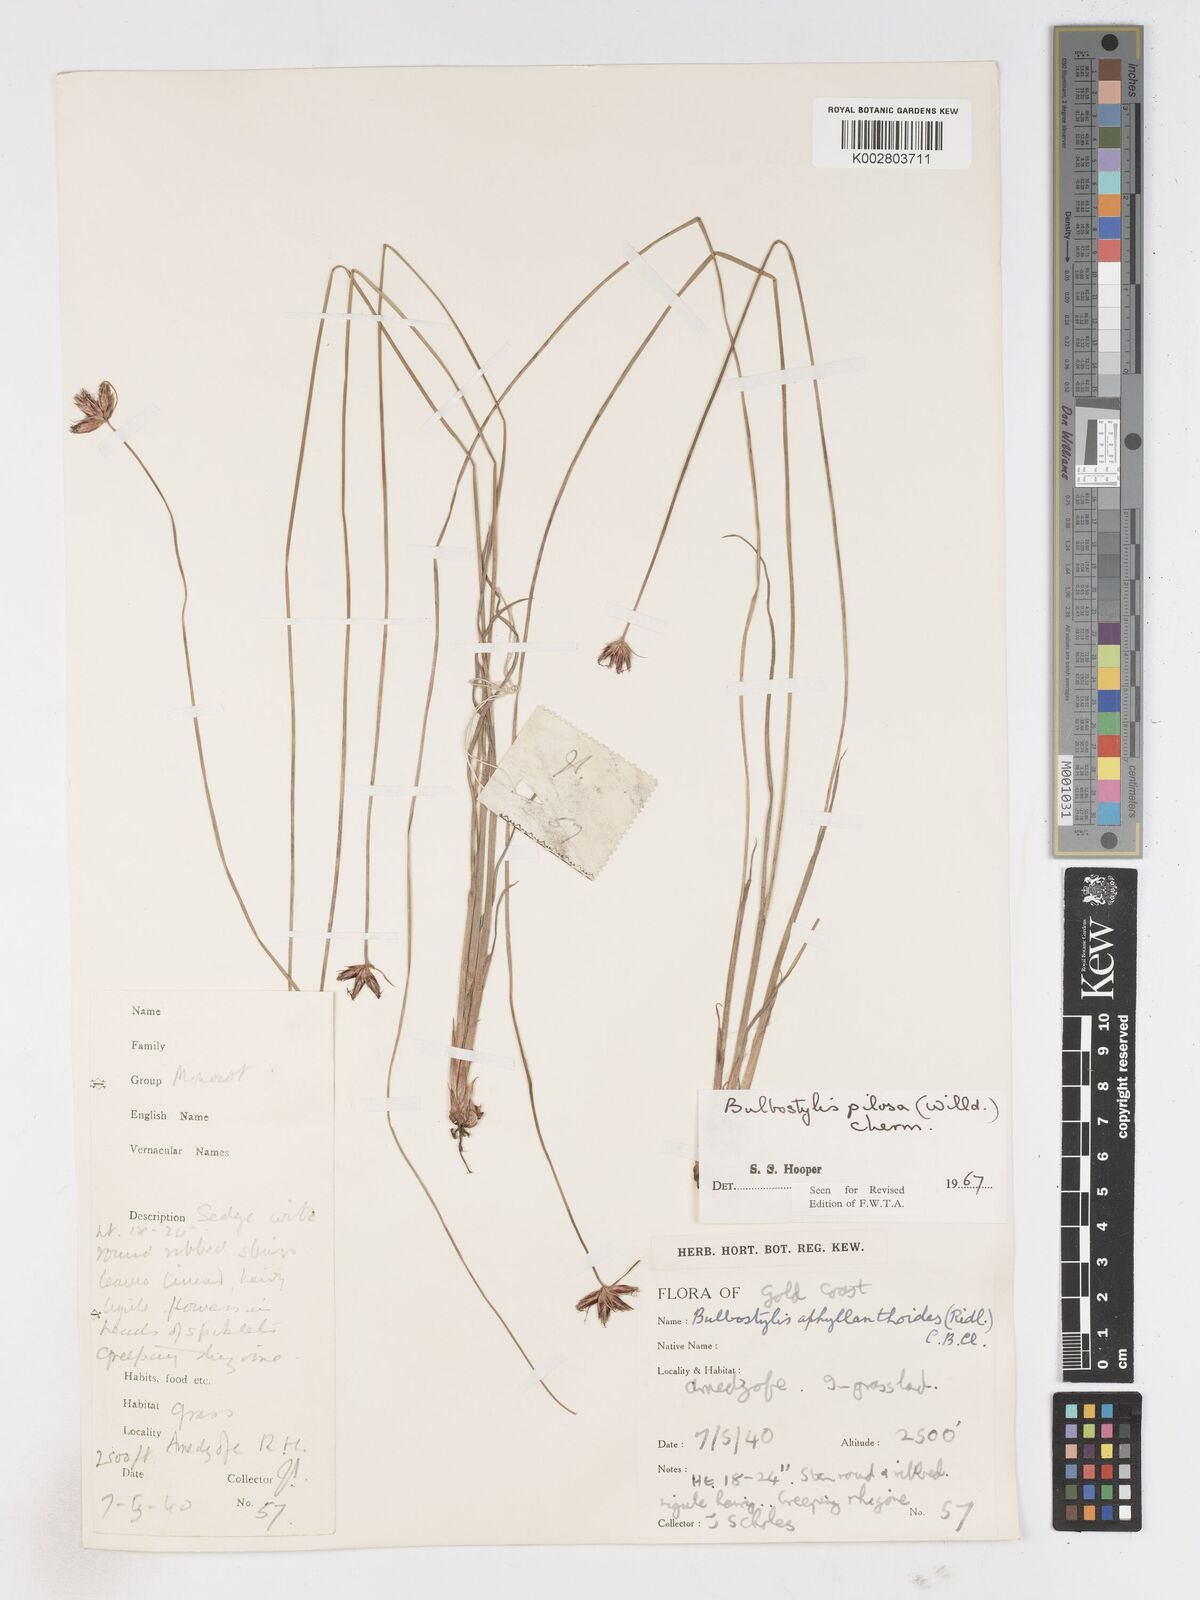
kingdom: Plantae
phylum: Tracheophyta
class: Liliopsida
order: Poales
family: Cyperaceae
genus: Bulbostylis
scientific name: Bulbostylis pilosa
